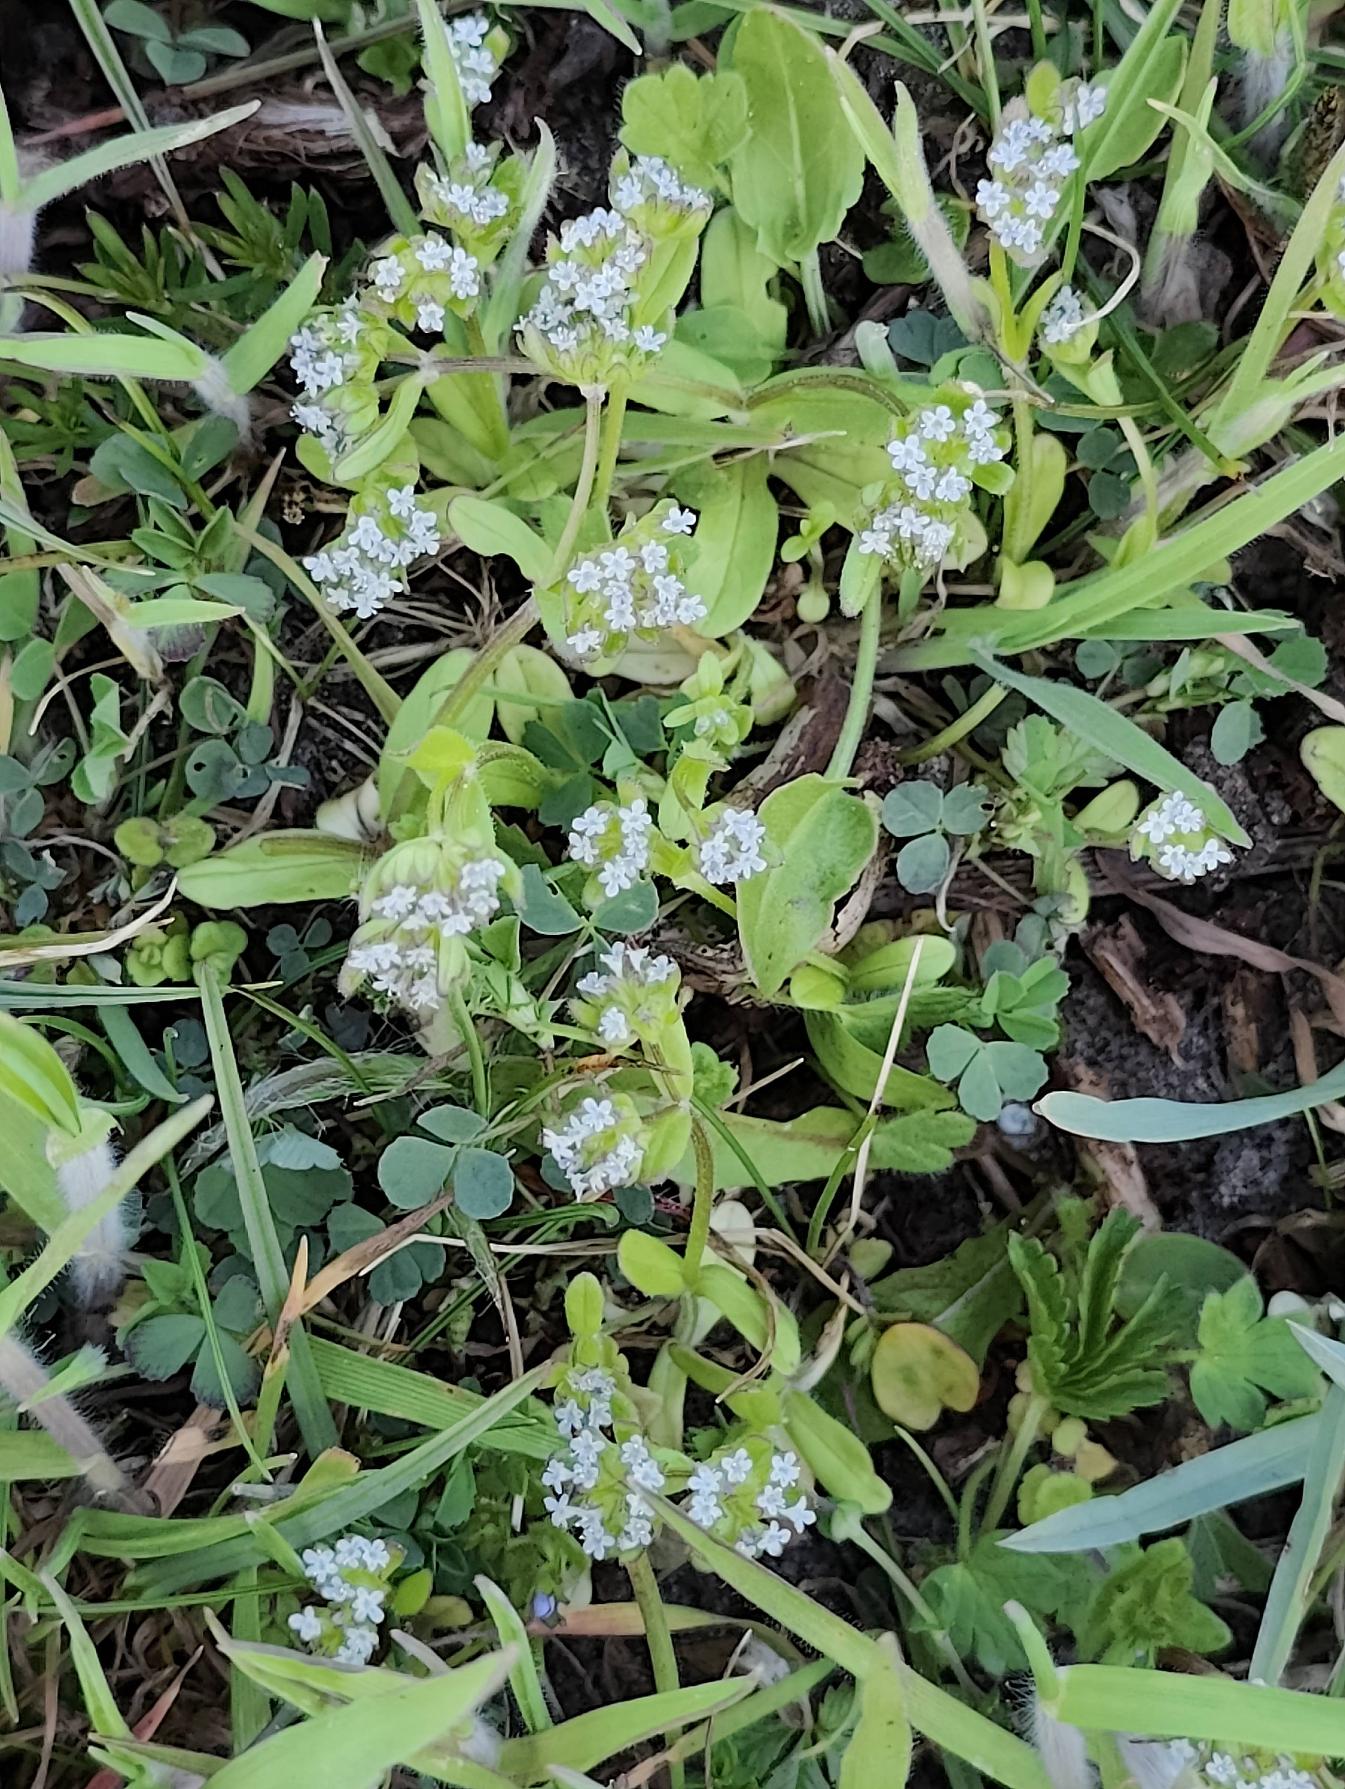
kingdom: Plantae
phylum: Tracheophyta
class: Magnoliopsida
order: Dipsacales
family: Caprifoliaceae
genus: Valerianella
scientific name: Valerianella locusta
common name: Tandfri vårsalat
